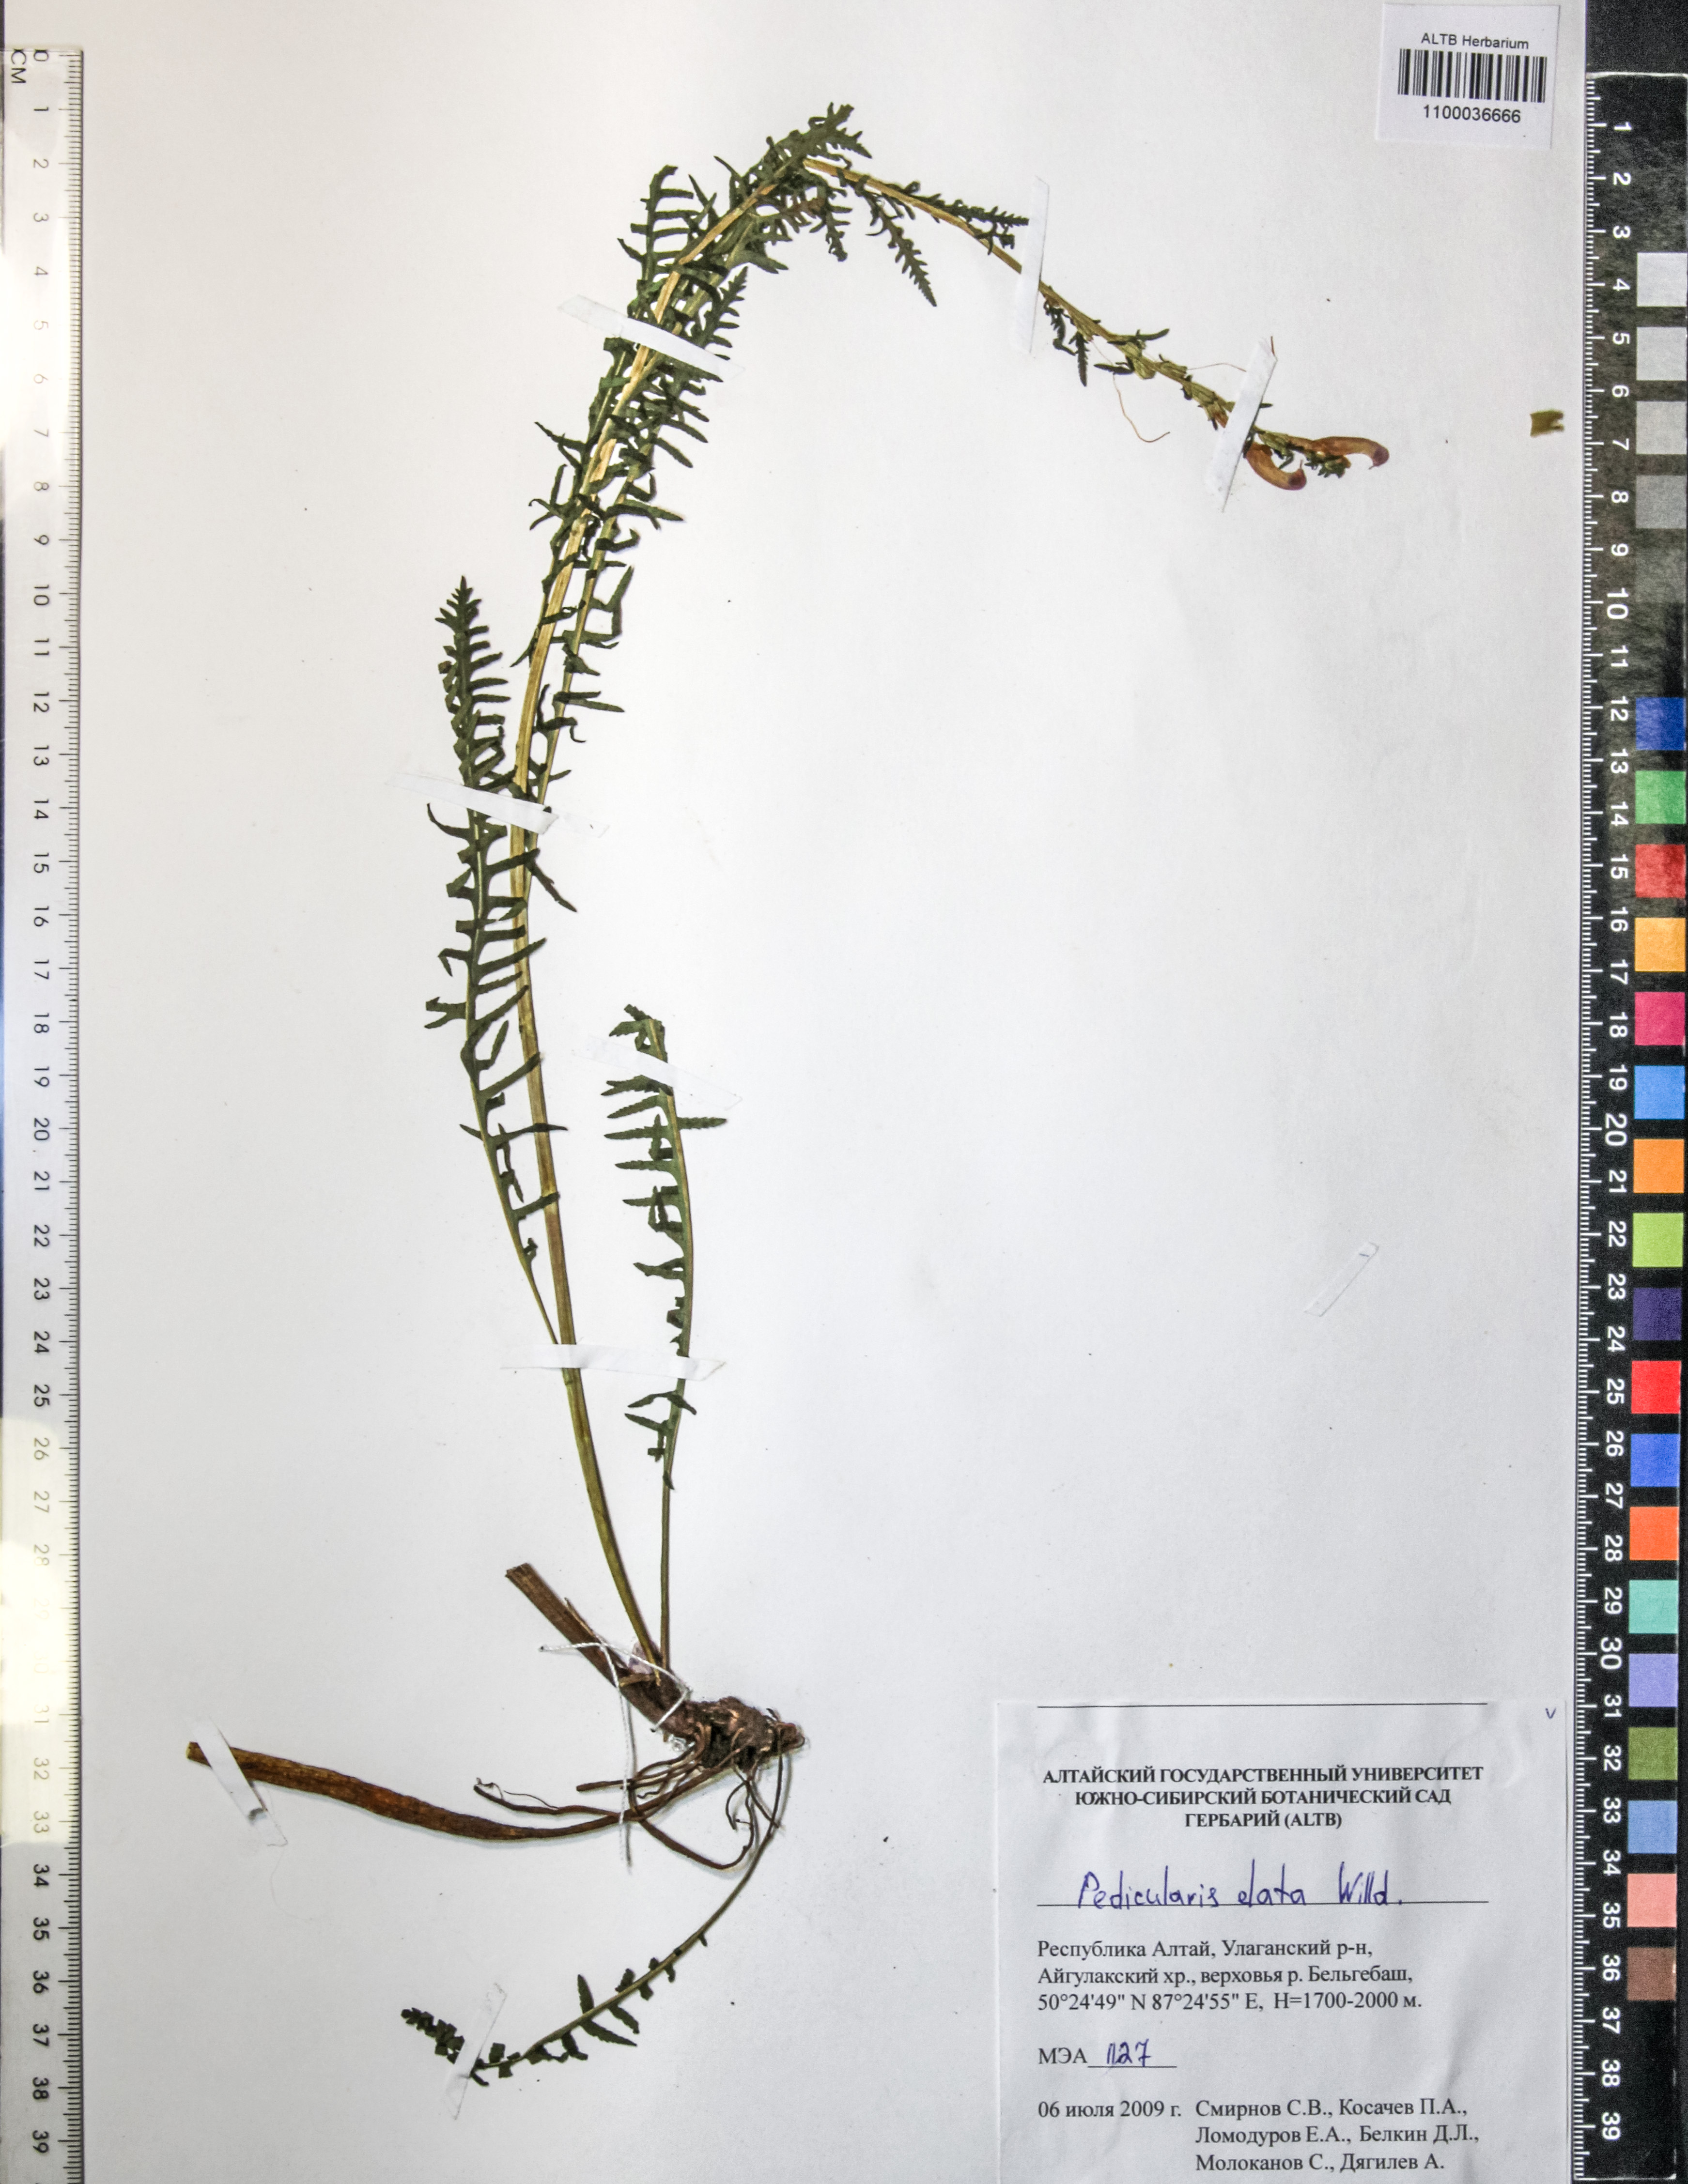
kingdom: Plantae
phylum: Tracheophyta
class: Magnoliopsida
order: Lamiales
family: Orobanchaceae
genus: Pedicularis
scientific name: Pedicularis elata
